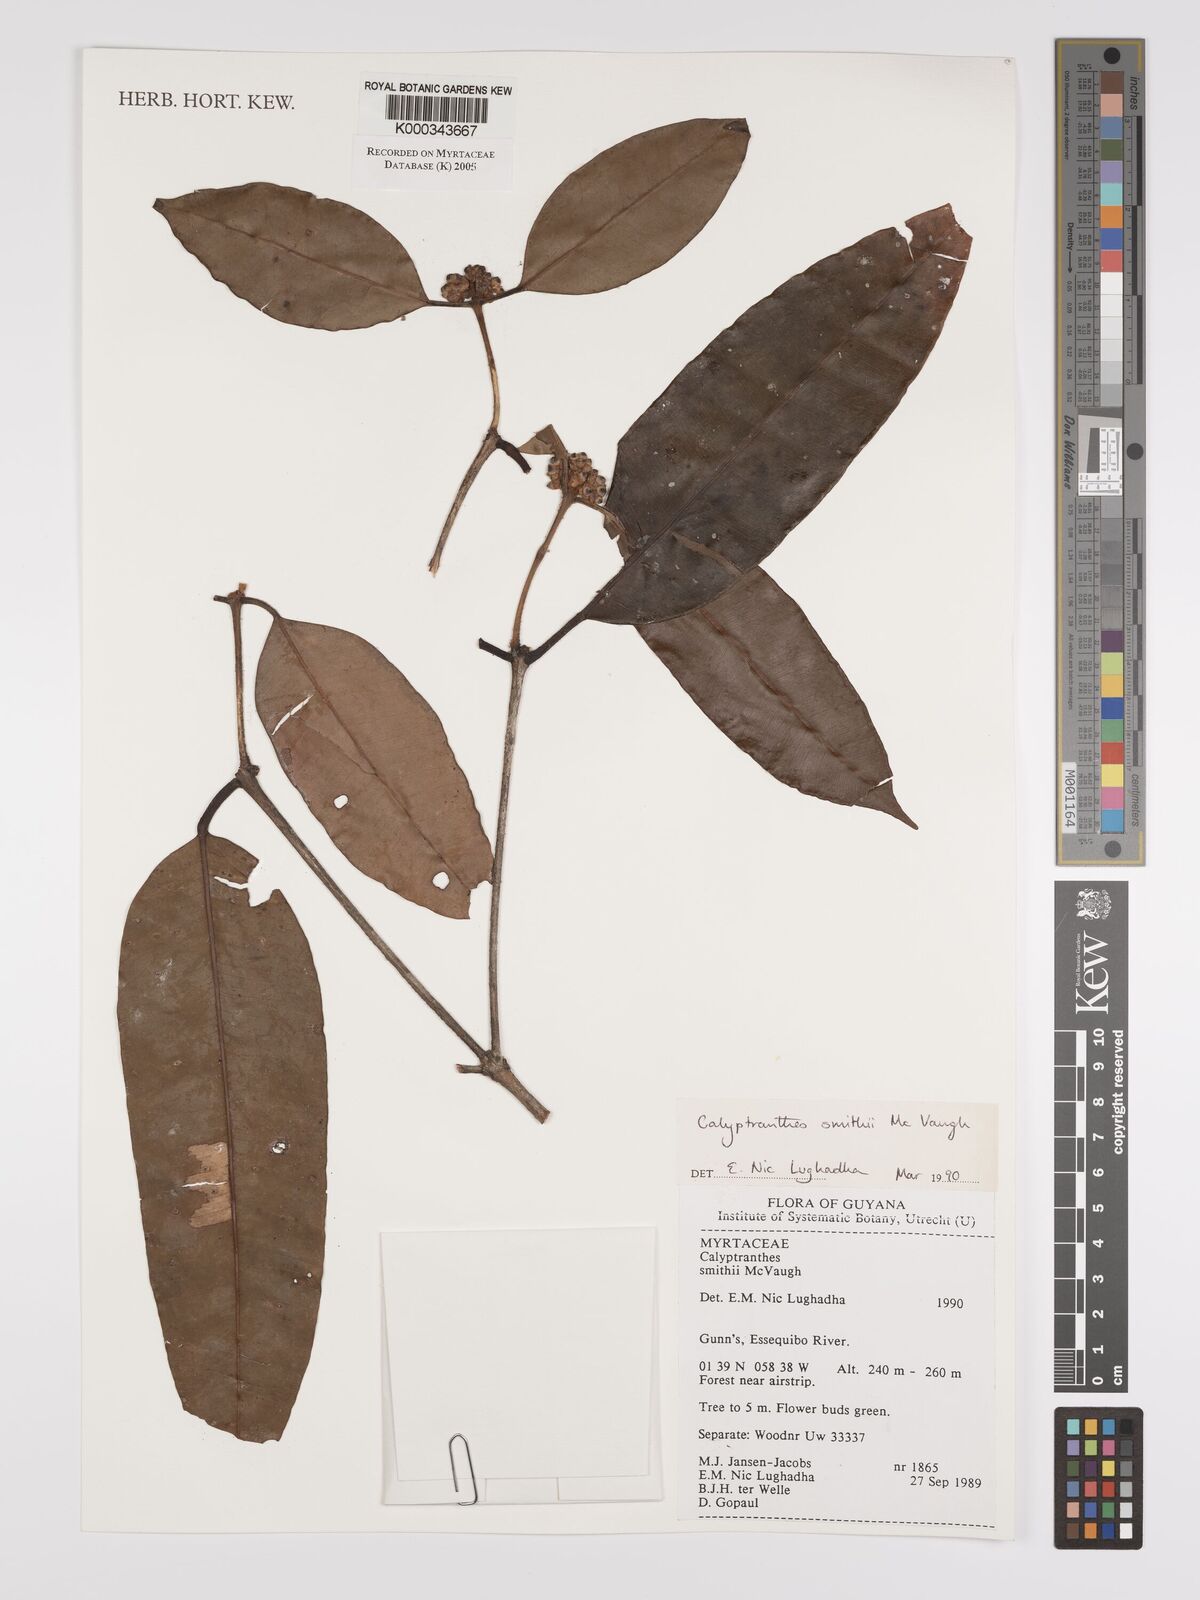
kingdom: Plantae
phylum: Tracheophyta
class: Magnoliopsida
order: Myrtales
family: Myrtaceae
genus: Myrcia
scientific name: Myrcia neosmithii
